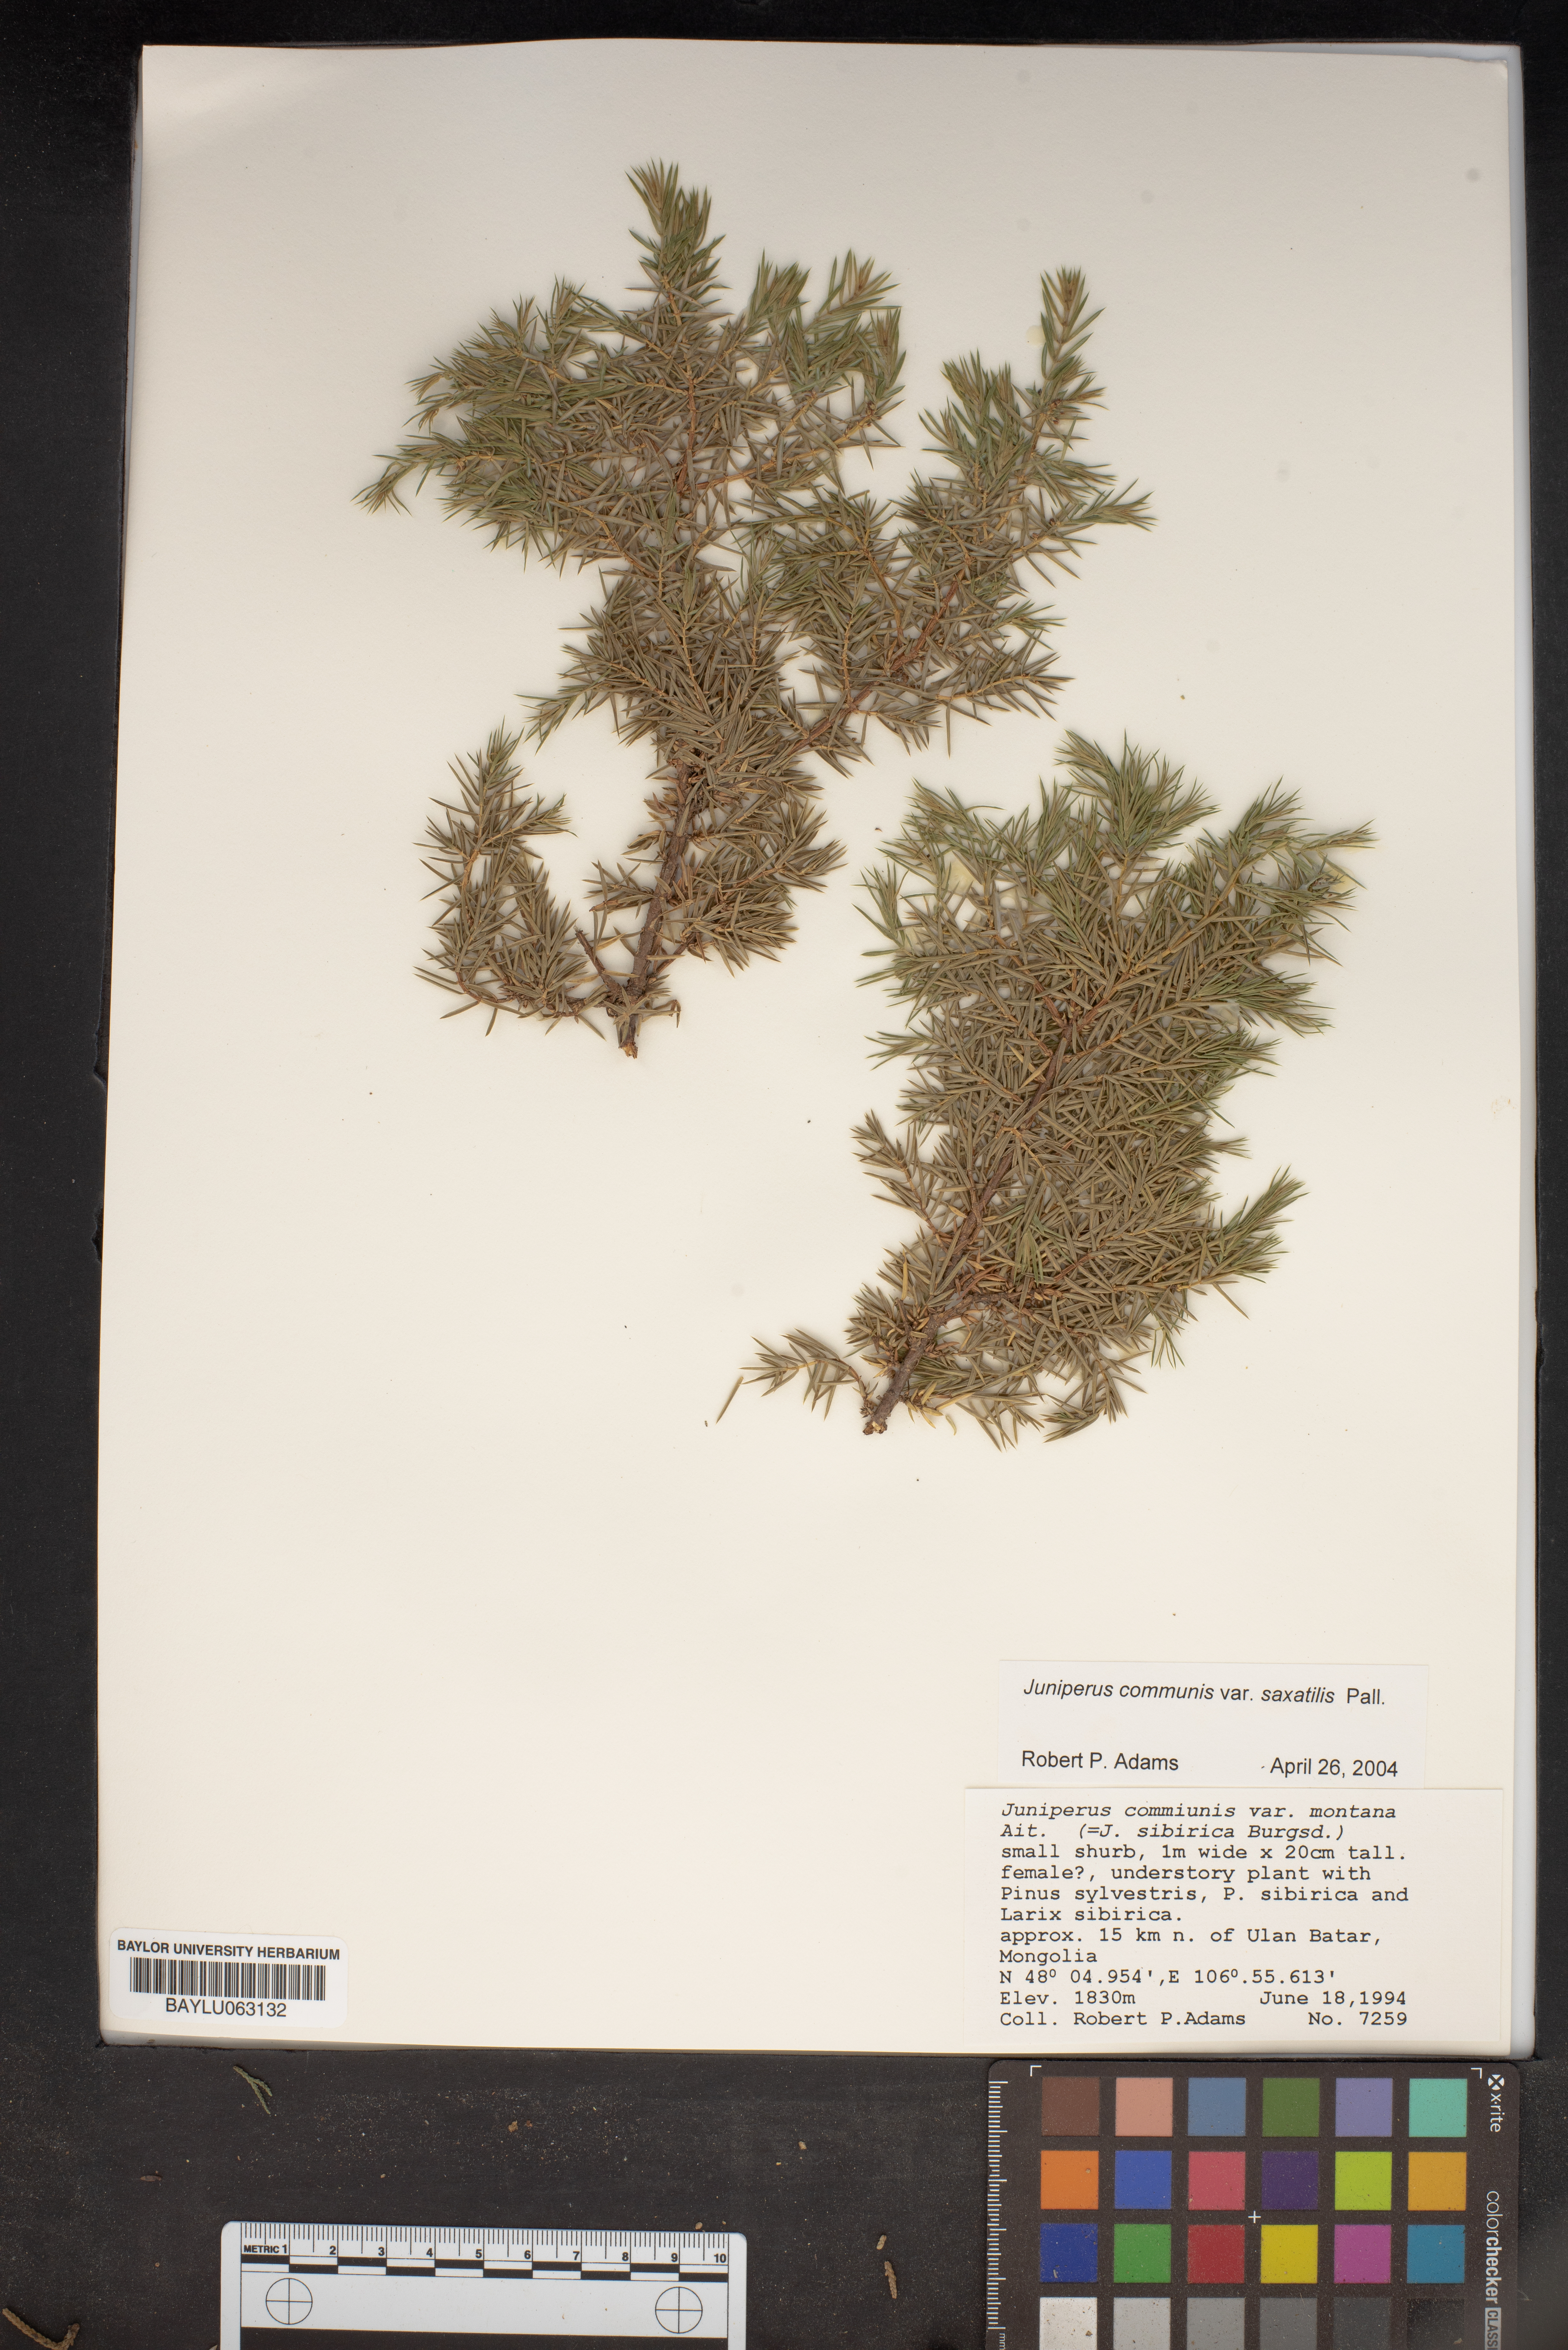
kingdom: Plantae
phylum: Tracheophyta
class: Pinopsida
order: Pinales
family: Cupressaceae
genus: Juniperus
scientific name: Juniperus communis
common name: Common juniper
